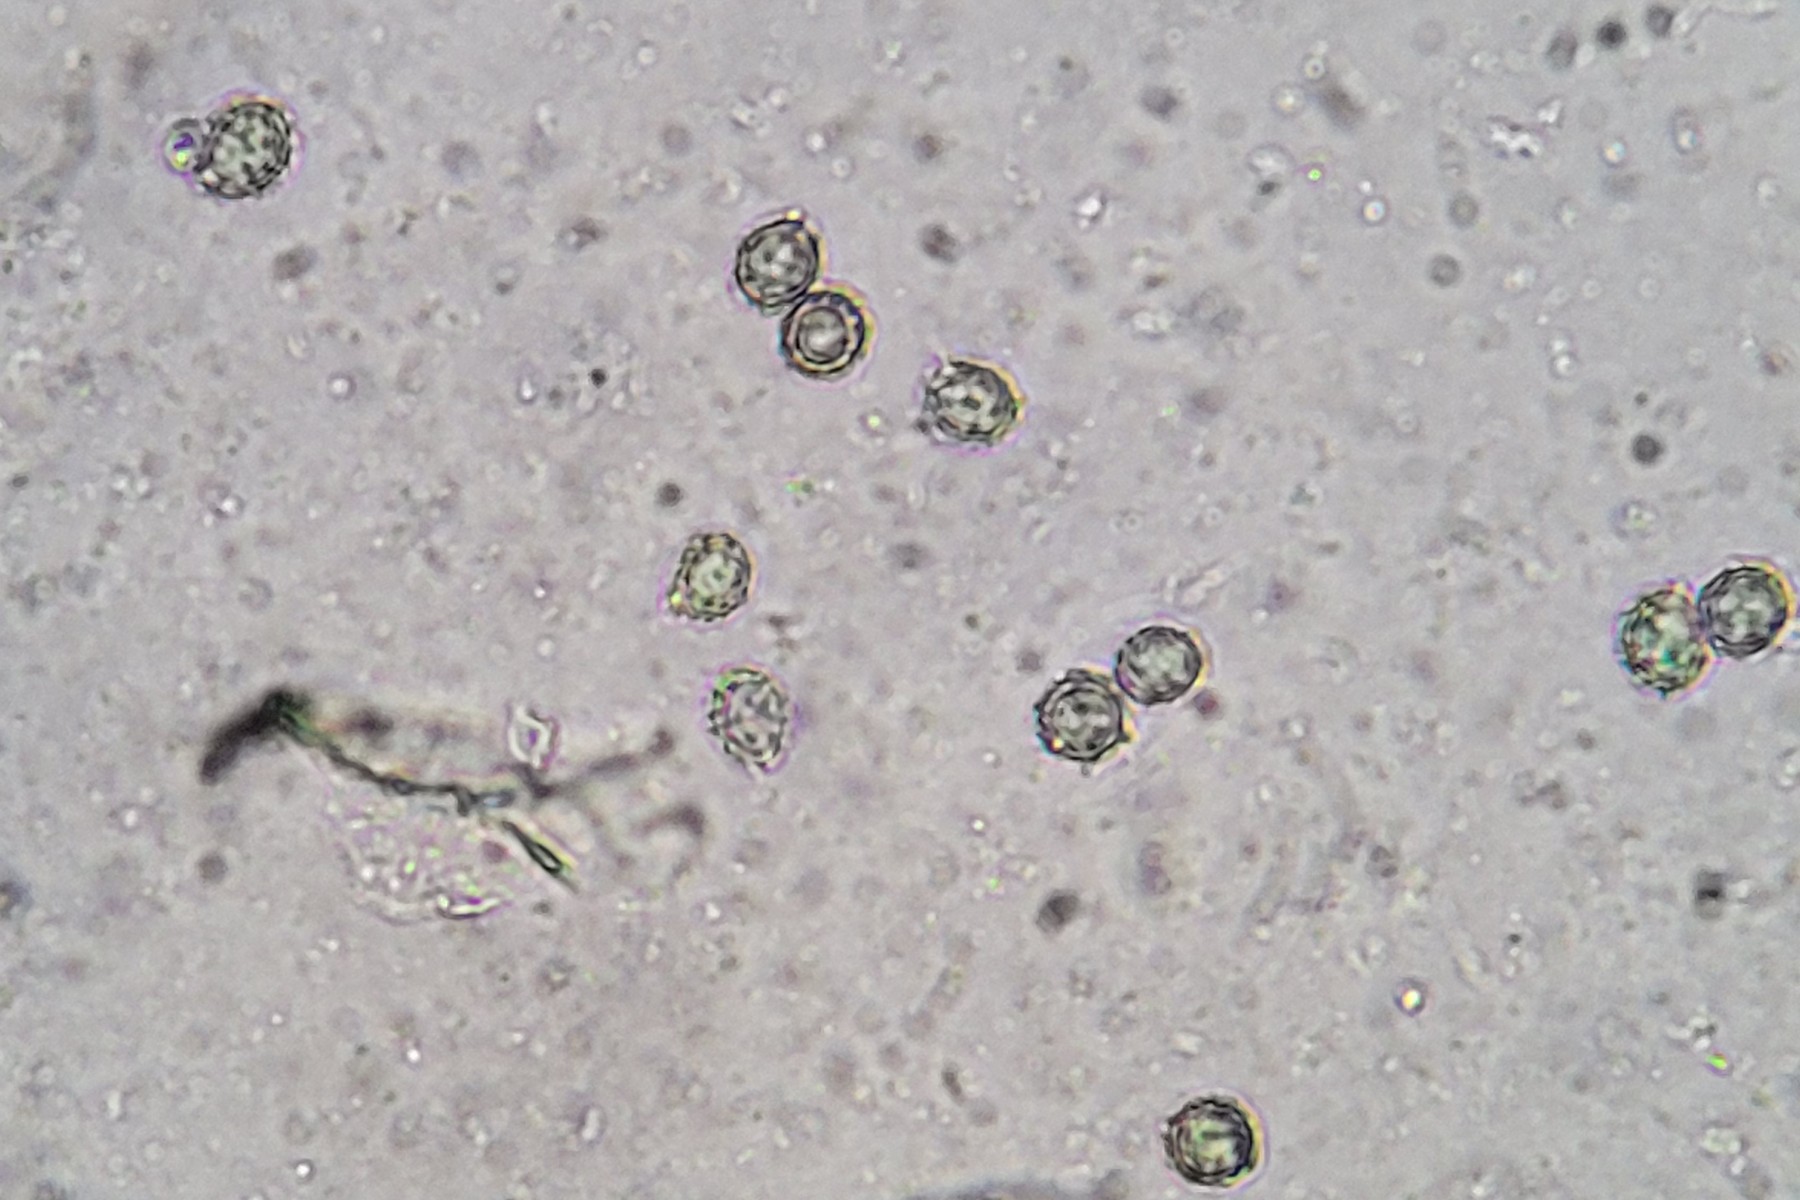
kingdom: Fungi
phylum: Basidiomycota
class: Agaricomycetes
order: Russulales
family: Russulaceae
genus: Russula
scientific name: Russula curtipes
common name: kortstokket skørhat
